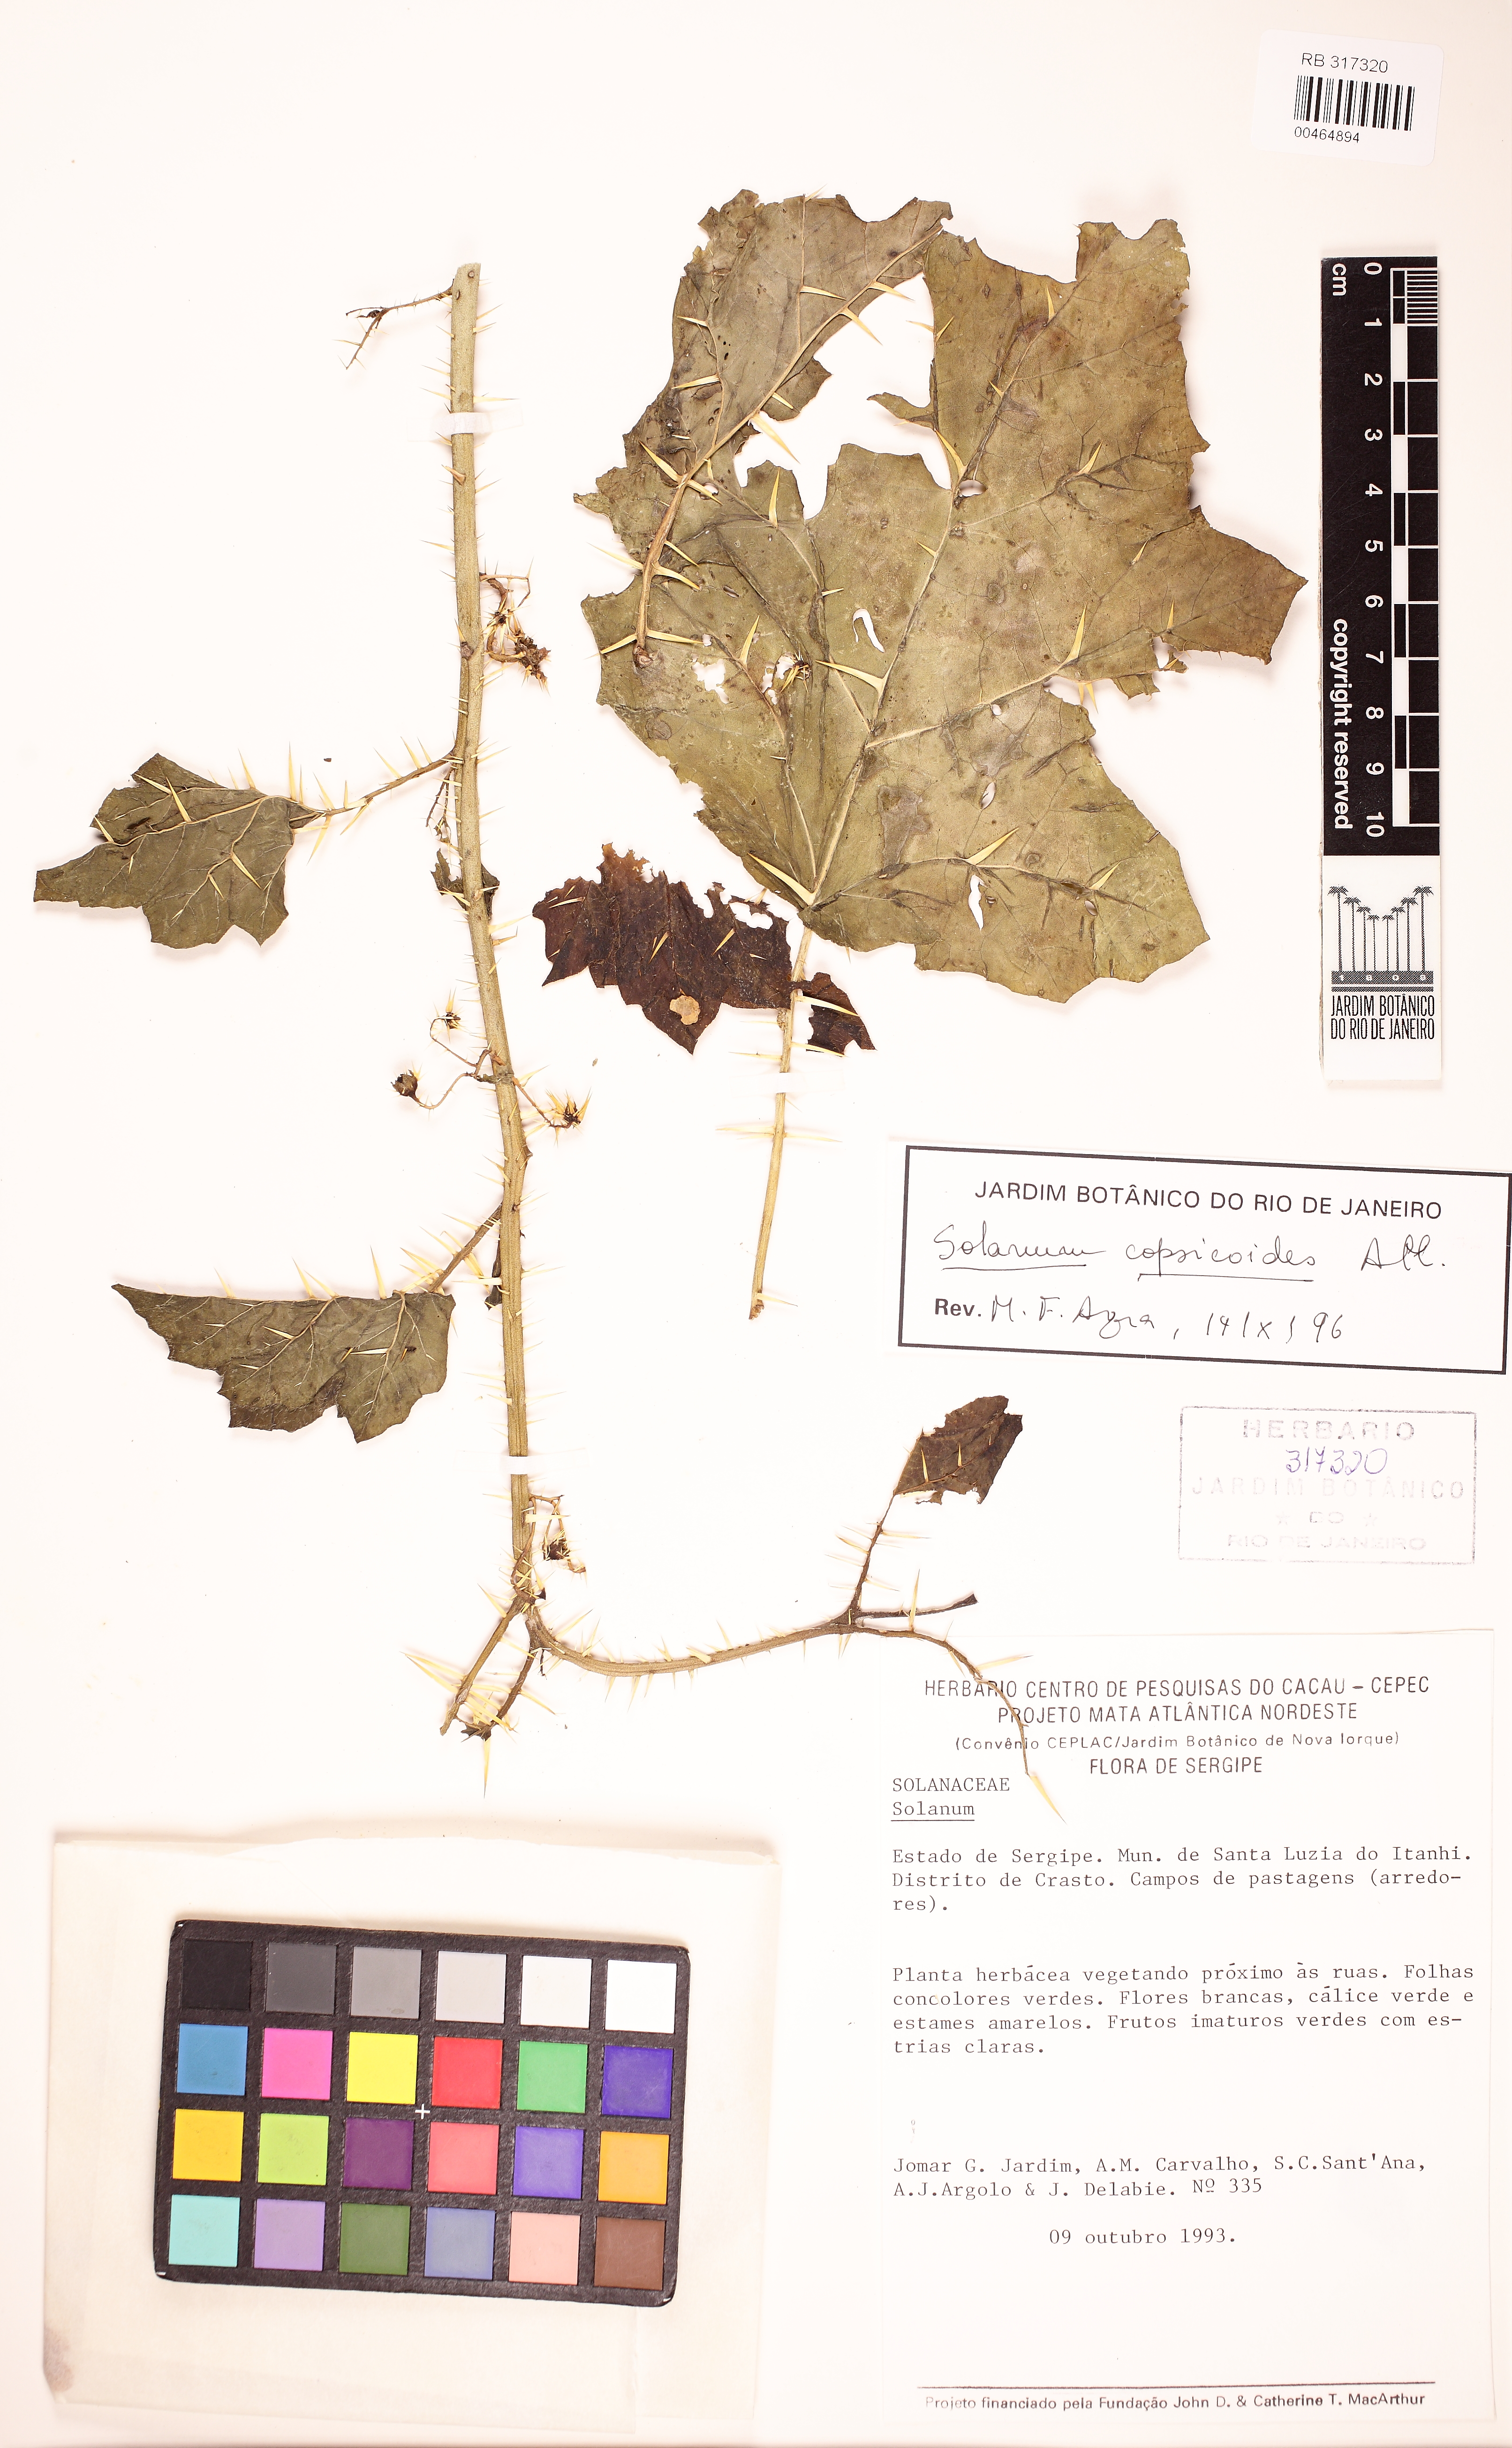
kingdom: Plantae
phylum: Tracheophyta
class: Magnoliopsida
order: Solanales
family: Solanaceae
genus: Solanum
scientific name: Solanum capsicoides
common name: Cockroach berry
